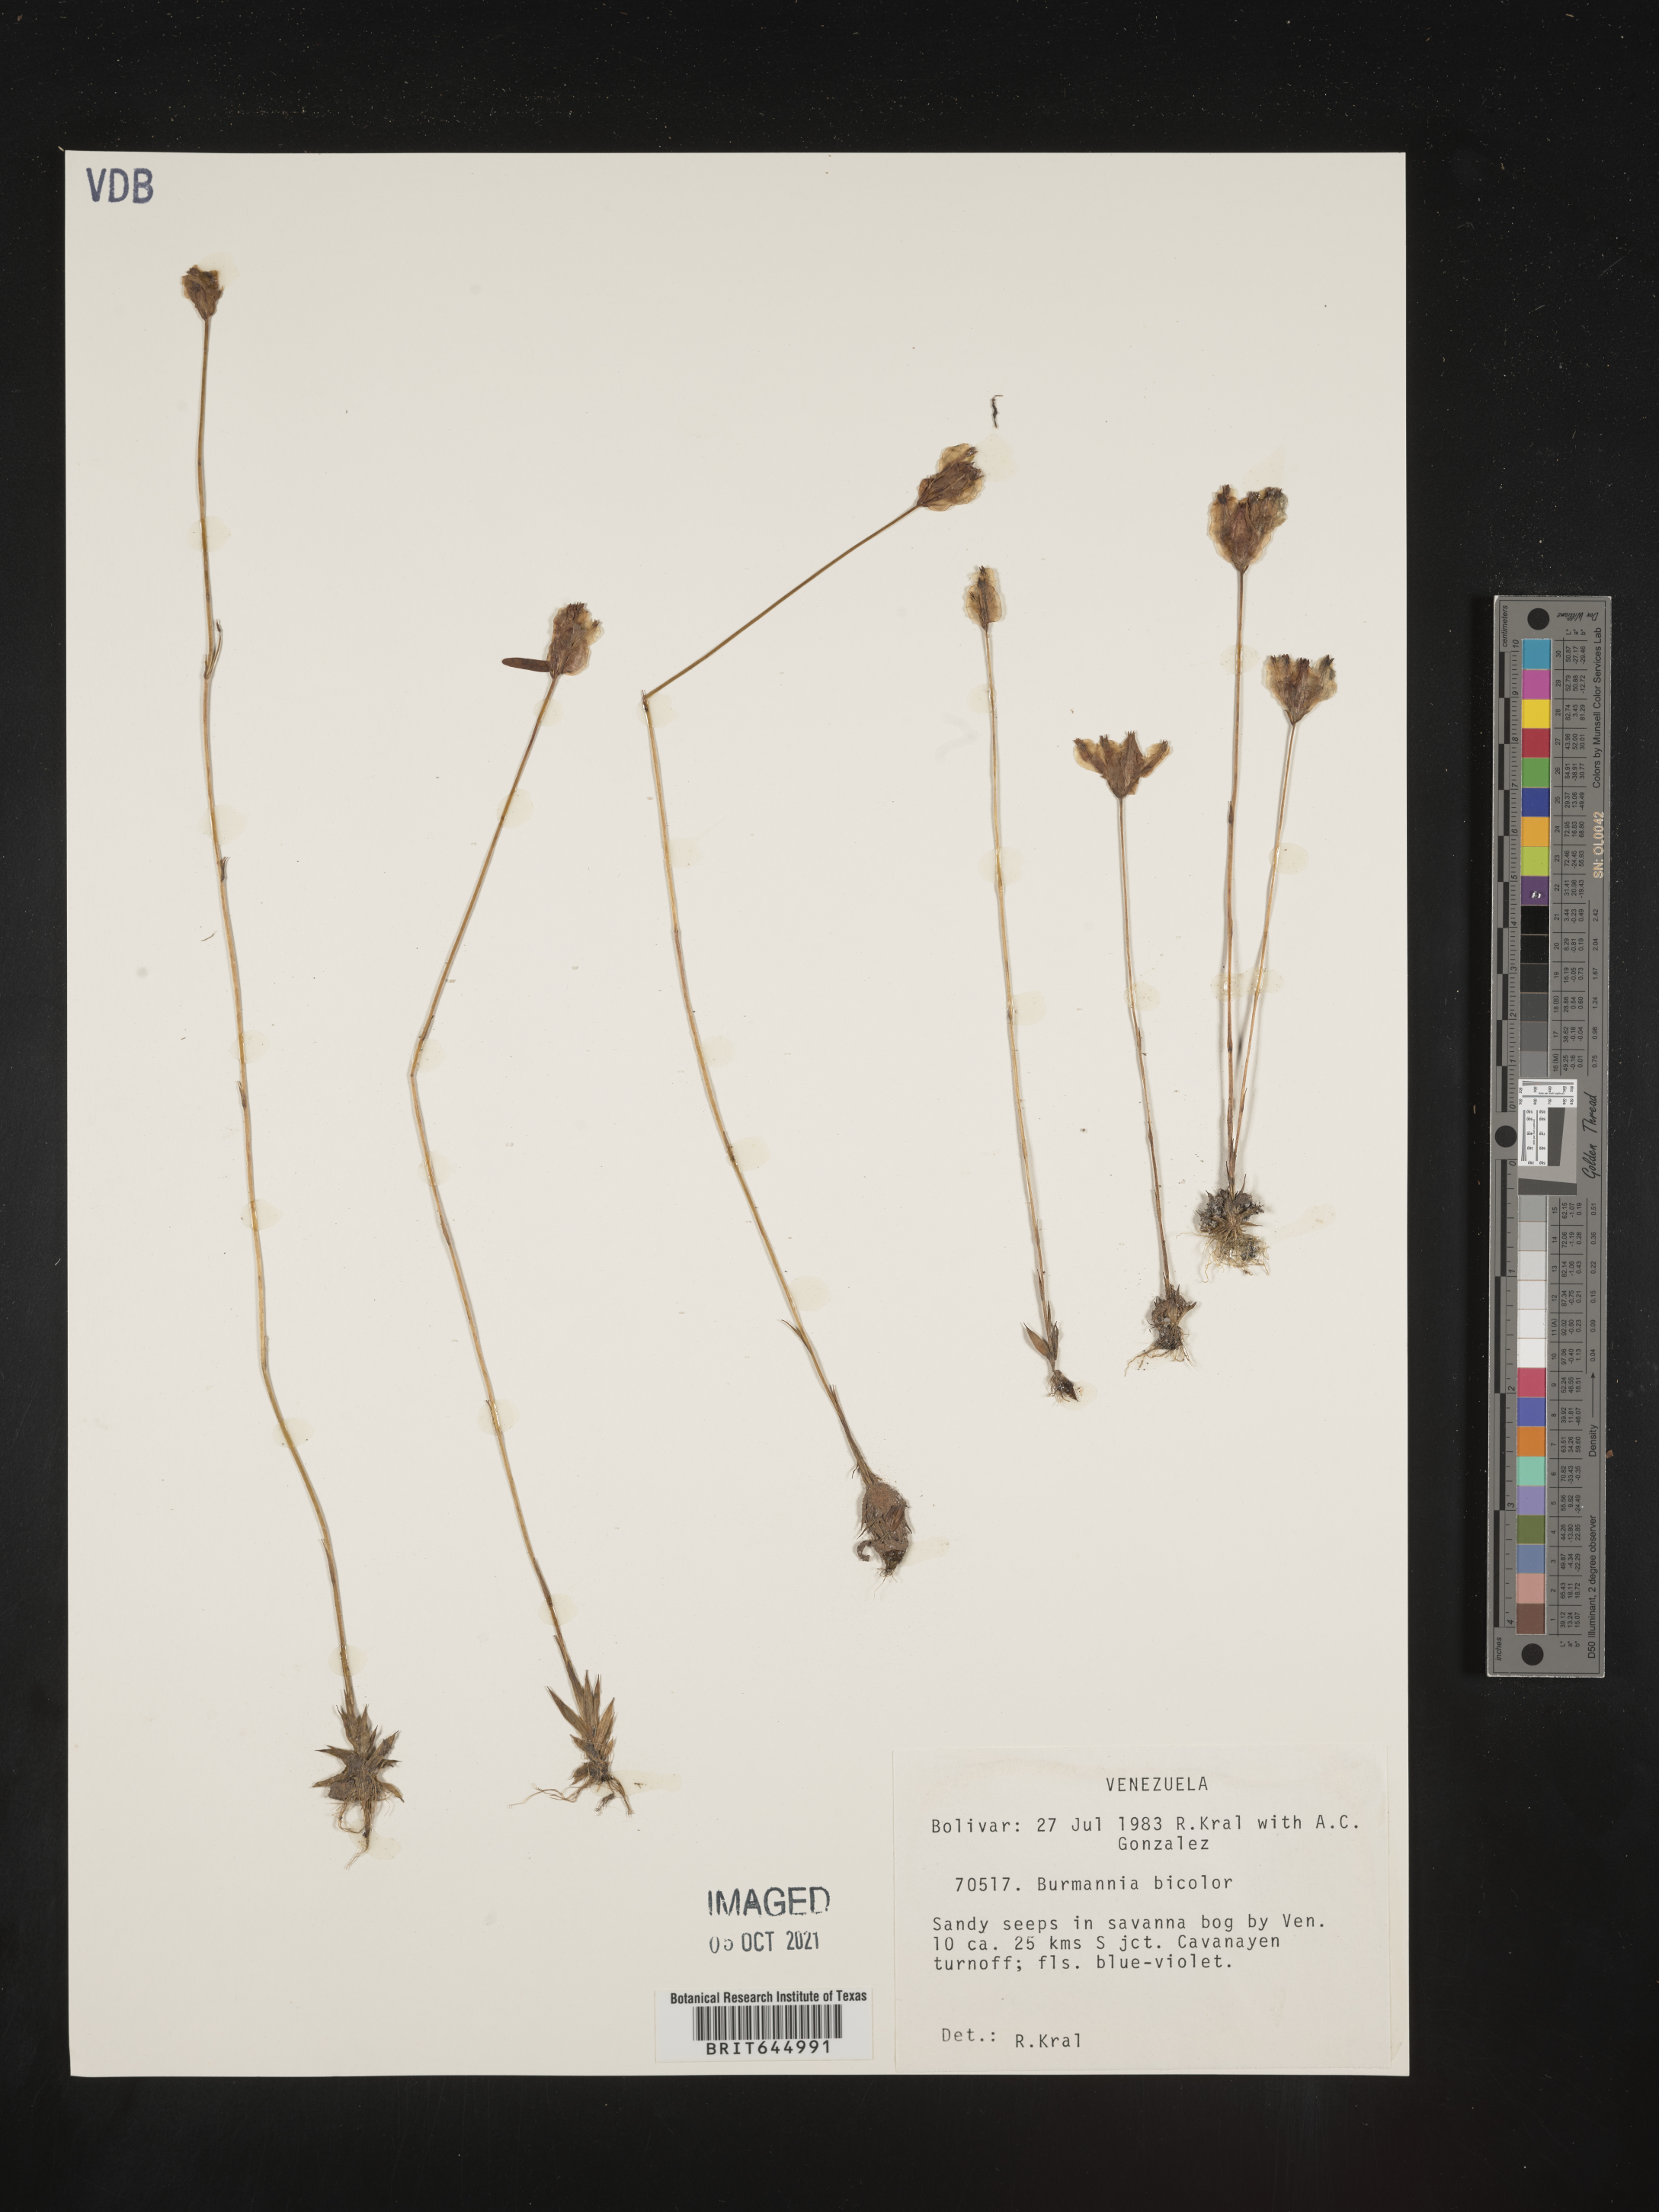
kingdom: Plantae
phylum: Tracheophyta
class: Liliopsida
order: Dioscoreales
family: Burmanniaceae
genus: Burmannia
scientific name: Burmannia bicolor
